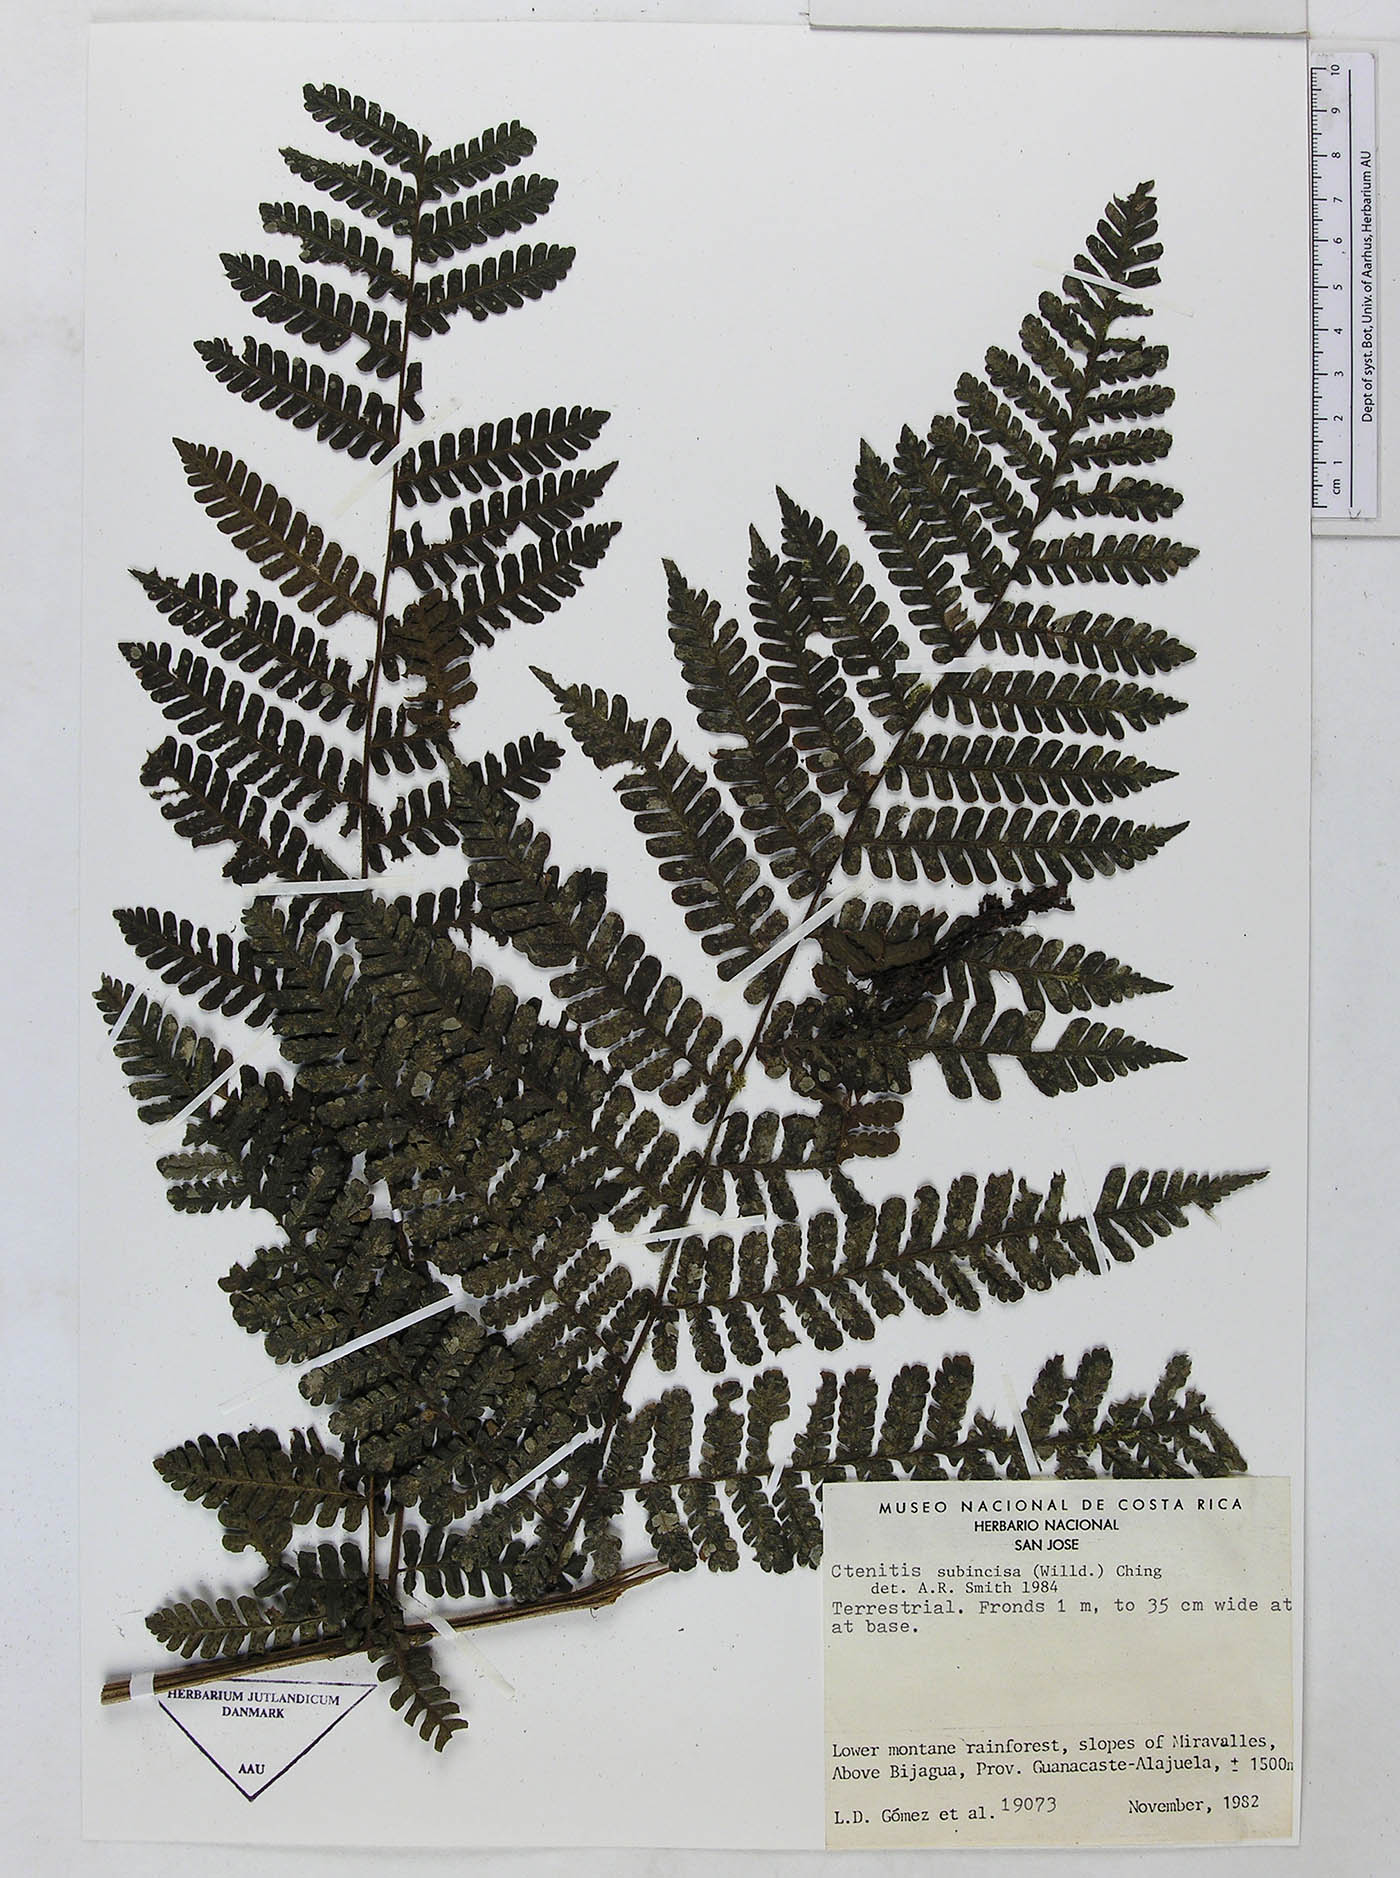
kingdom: Plantae
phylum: Tracheophyta
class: Polypodiopsida
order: Polypodiales
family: Dryopteridaceae
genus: Megalastrum
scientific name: Megalastrum longipilosum
